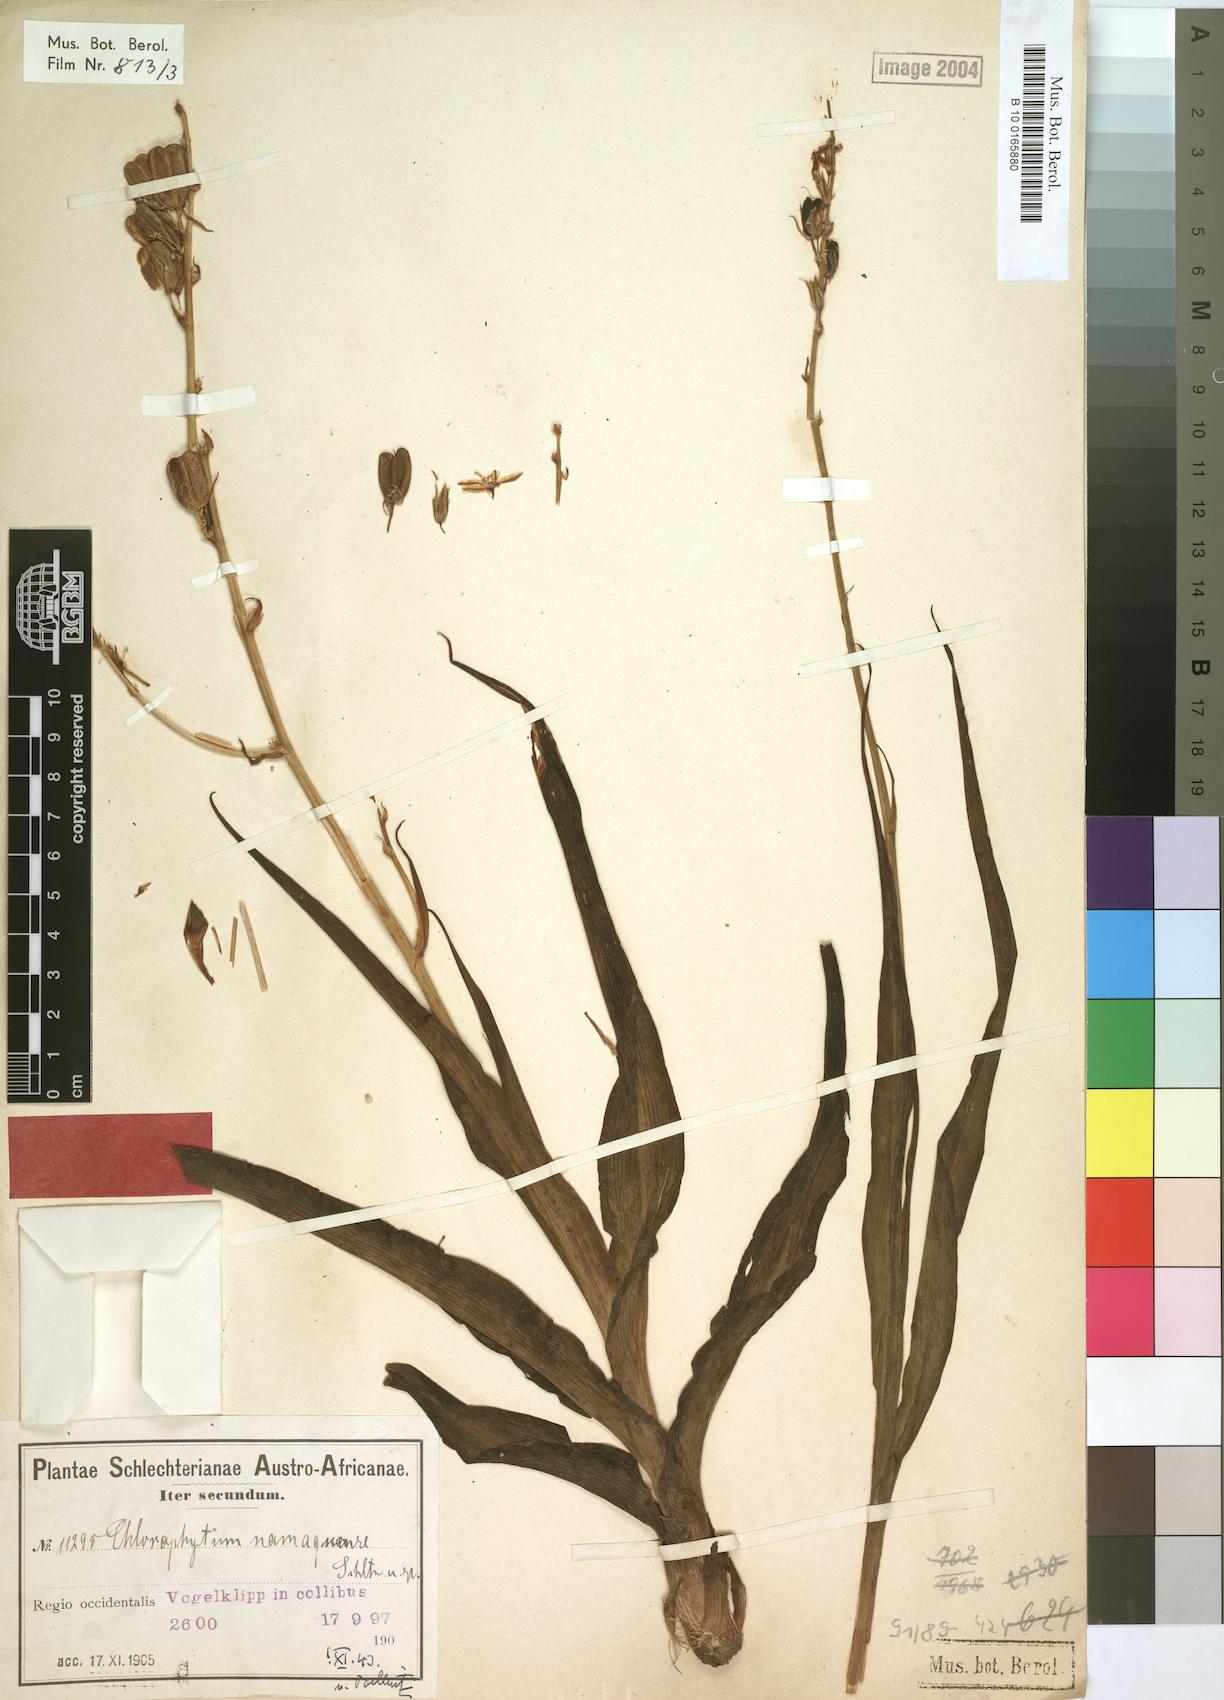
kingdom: Plantae
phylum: Tracheophyta
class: Liliopsida
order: Asparagales
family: Asparagaceae
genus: Chlorophytum
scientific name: Chlorophytum namaquense
